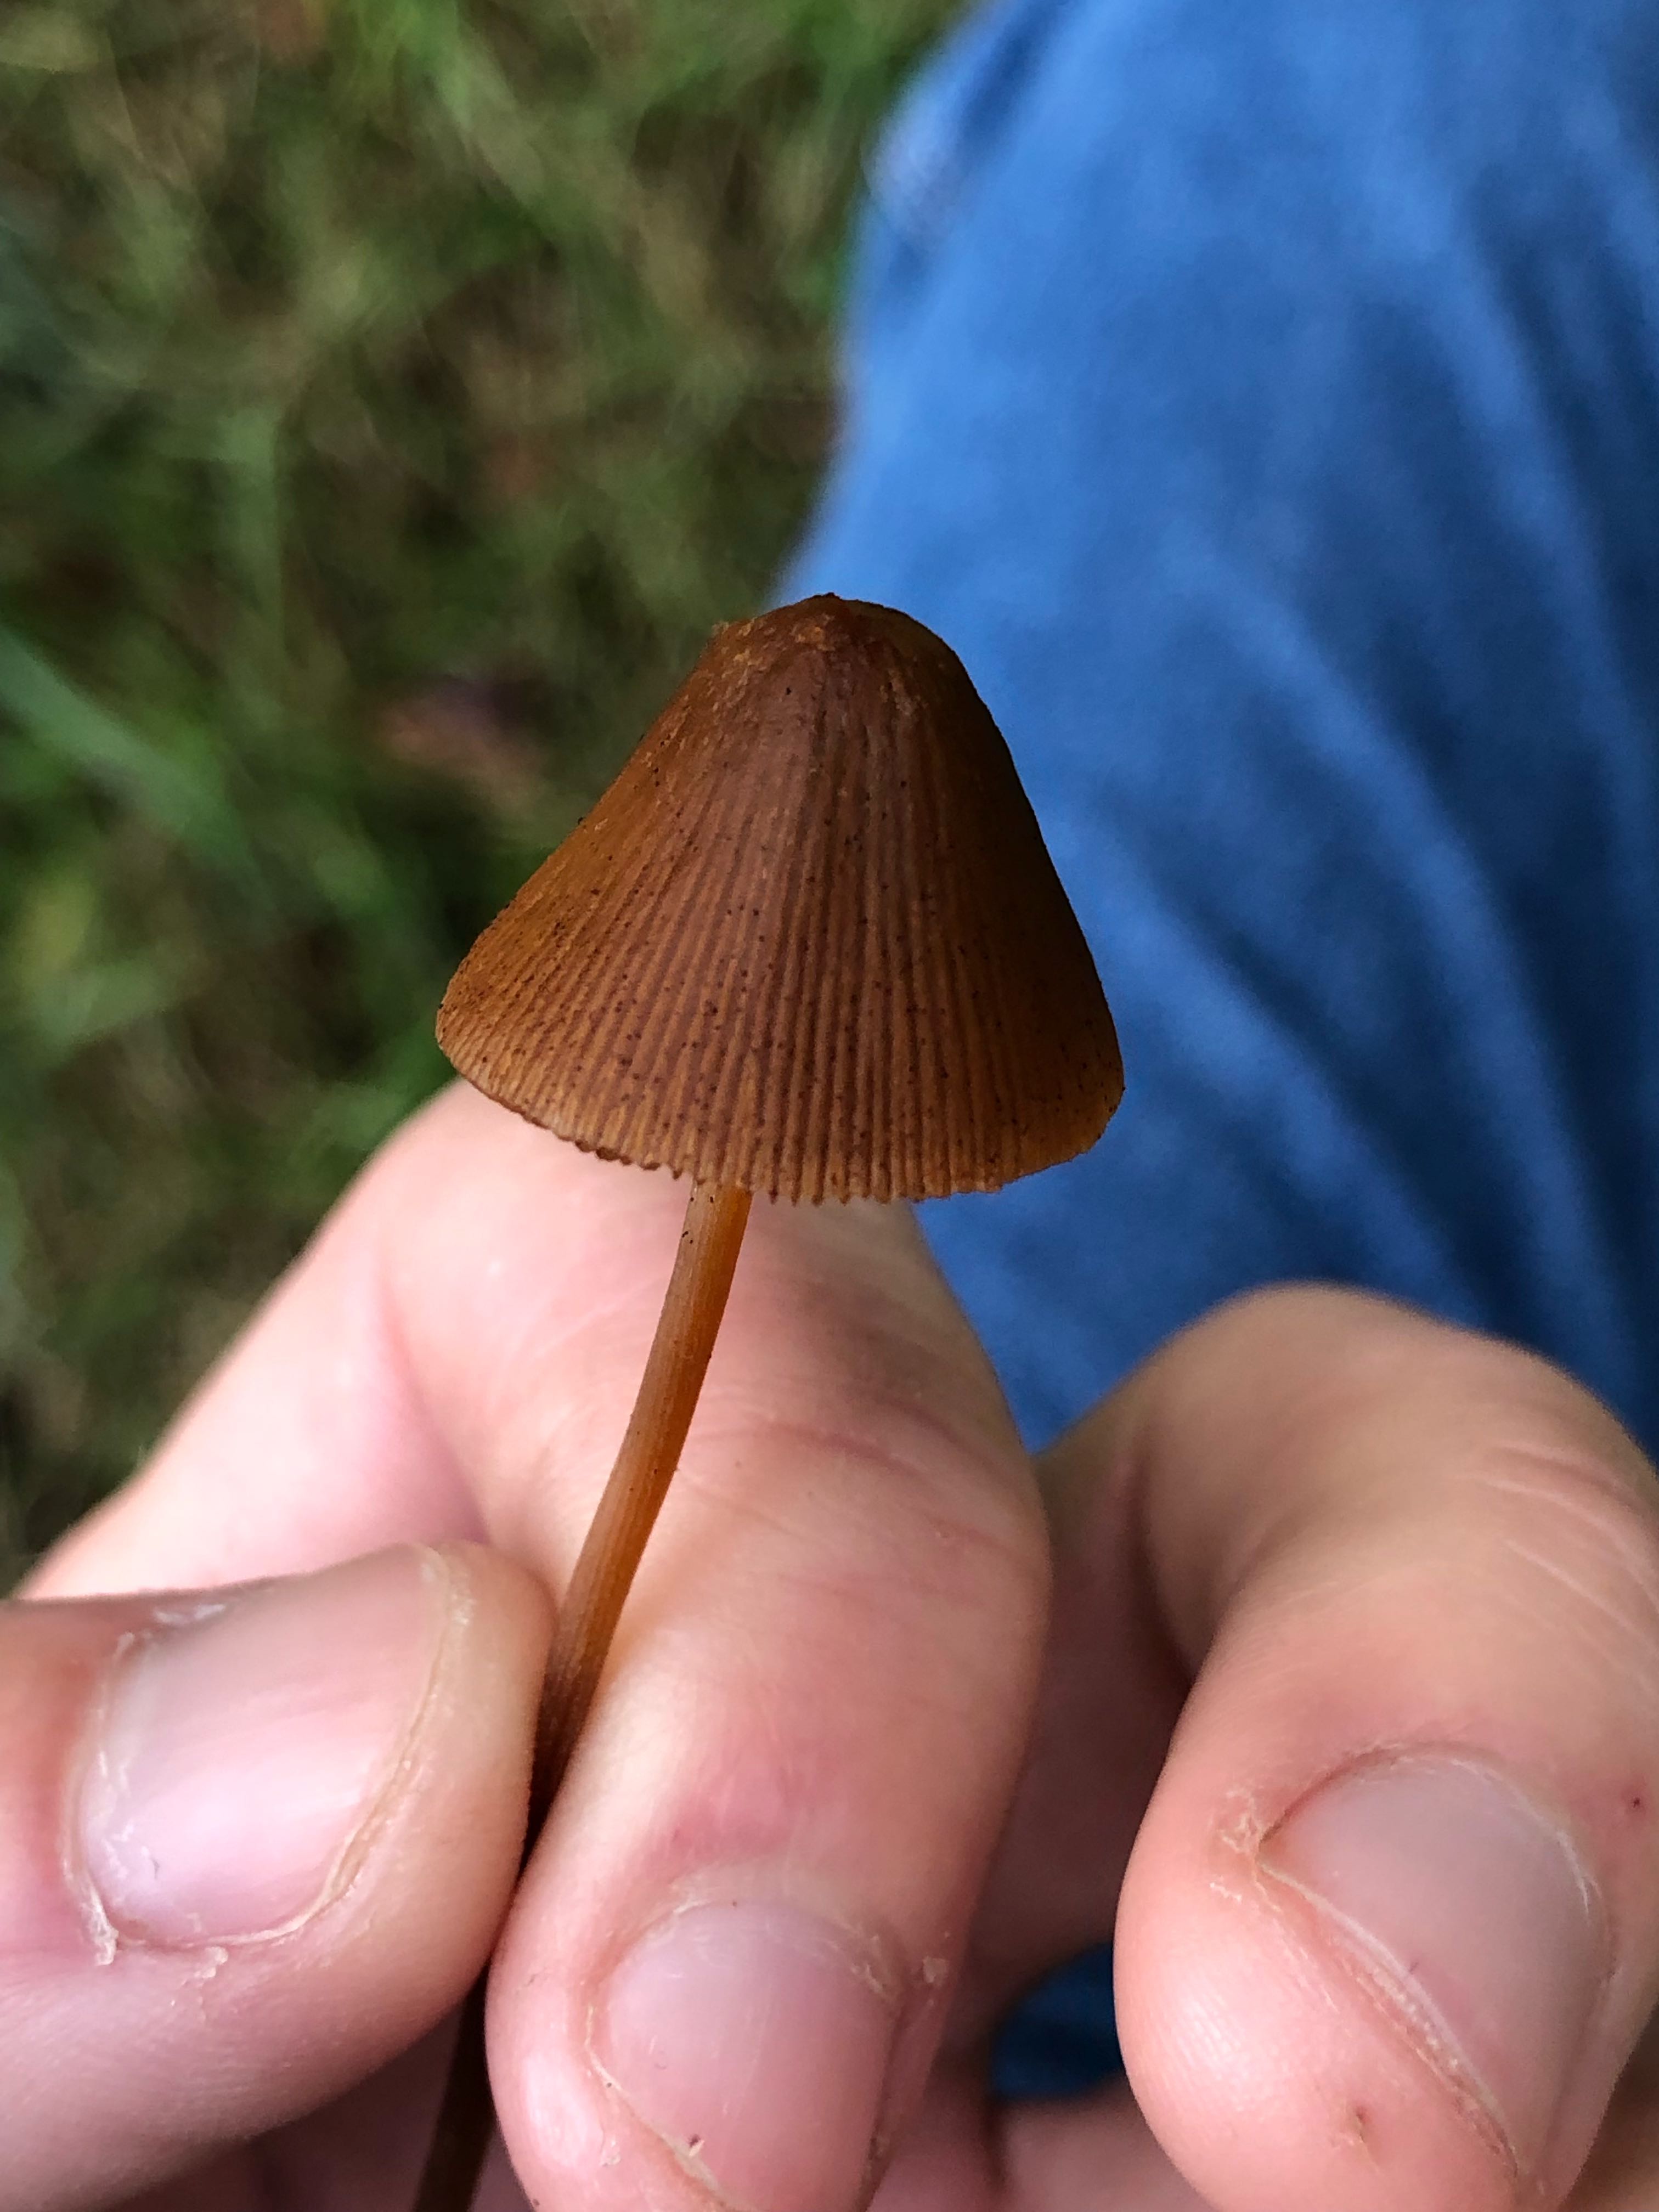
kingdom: Fungi
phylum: Basidiomycota
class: Agaricomycetes
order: Agaricales
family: Bolbitiaceae
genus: Conocybe
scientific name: Conocybe
